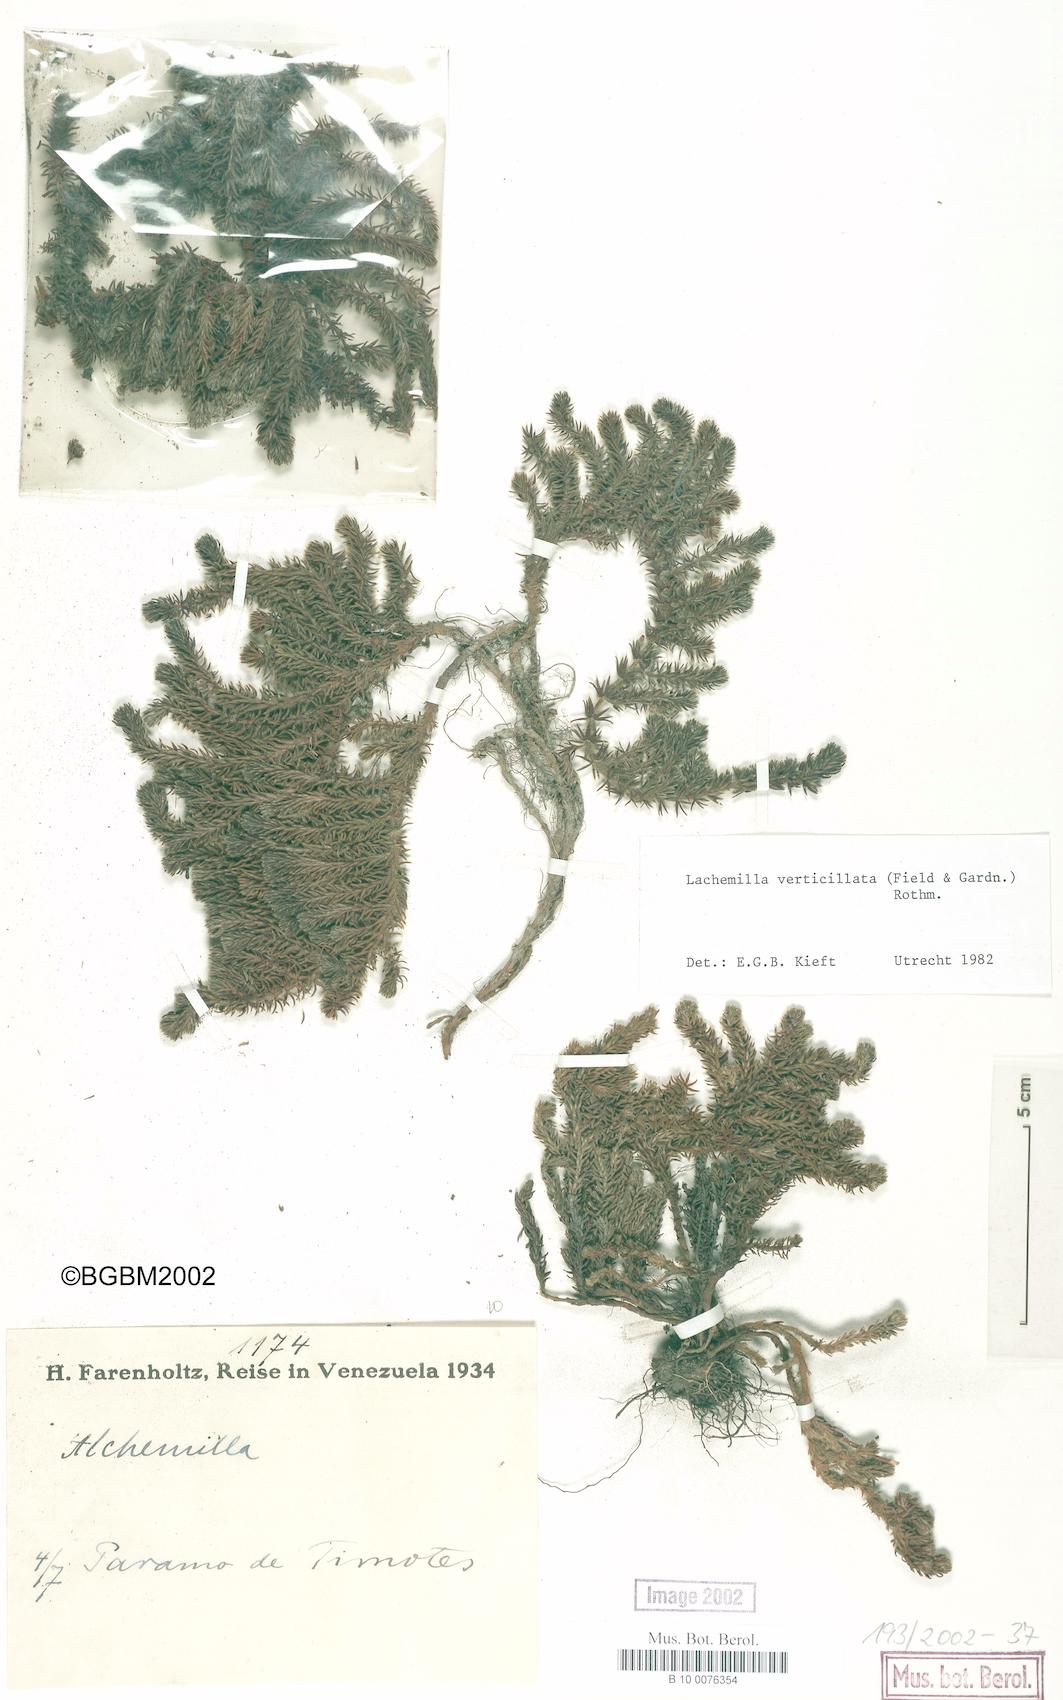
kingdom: Plantae
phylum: Tracheophyta
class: Magnoliopsida
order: Rosales
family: Rosaceae
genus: Lachemilla
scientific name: Lachemilla verticillata
